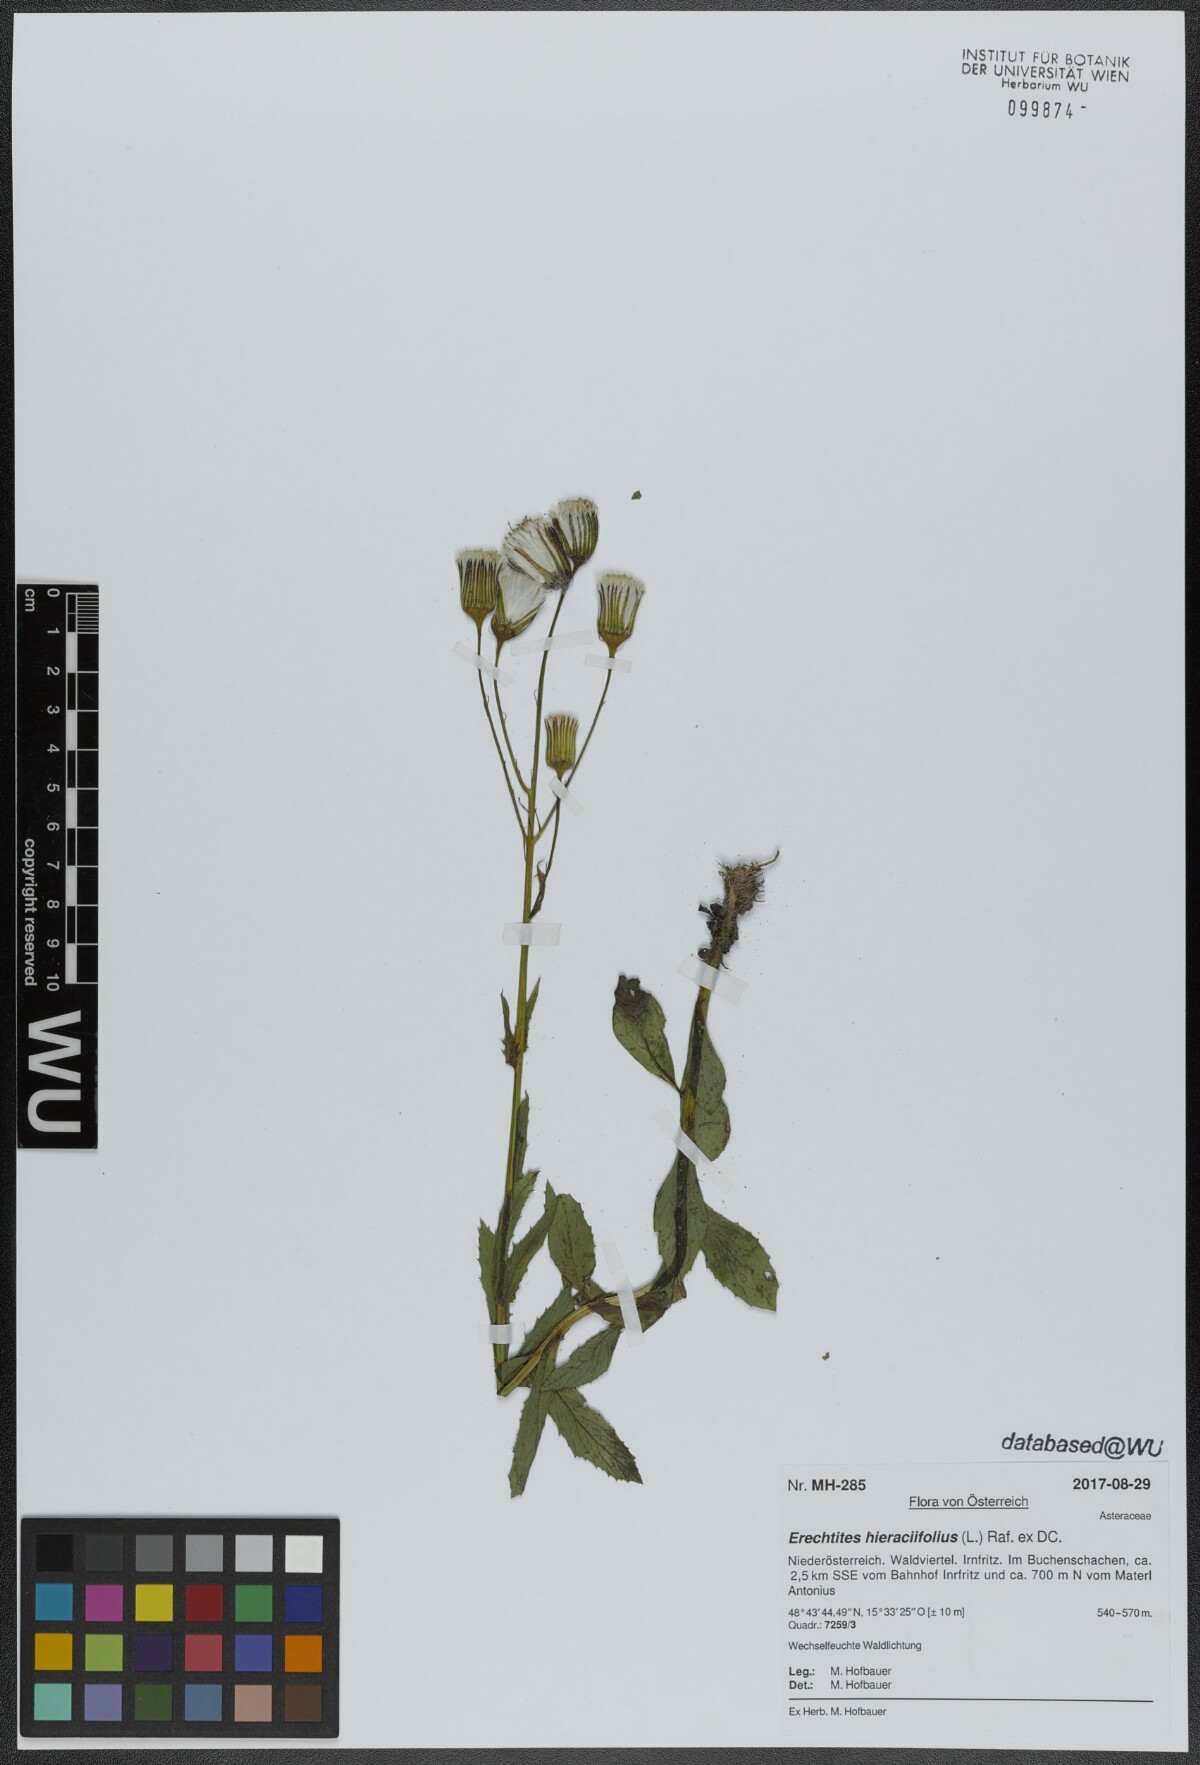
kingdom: Plantae
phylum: Tracheophyta
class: Magnoliopsida
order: Asterales
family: Asteraceae
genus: Erechtites
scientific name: Erechtites hieraciifolius
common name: American burnweed
